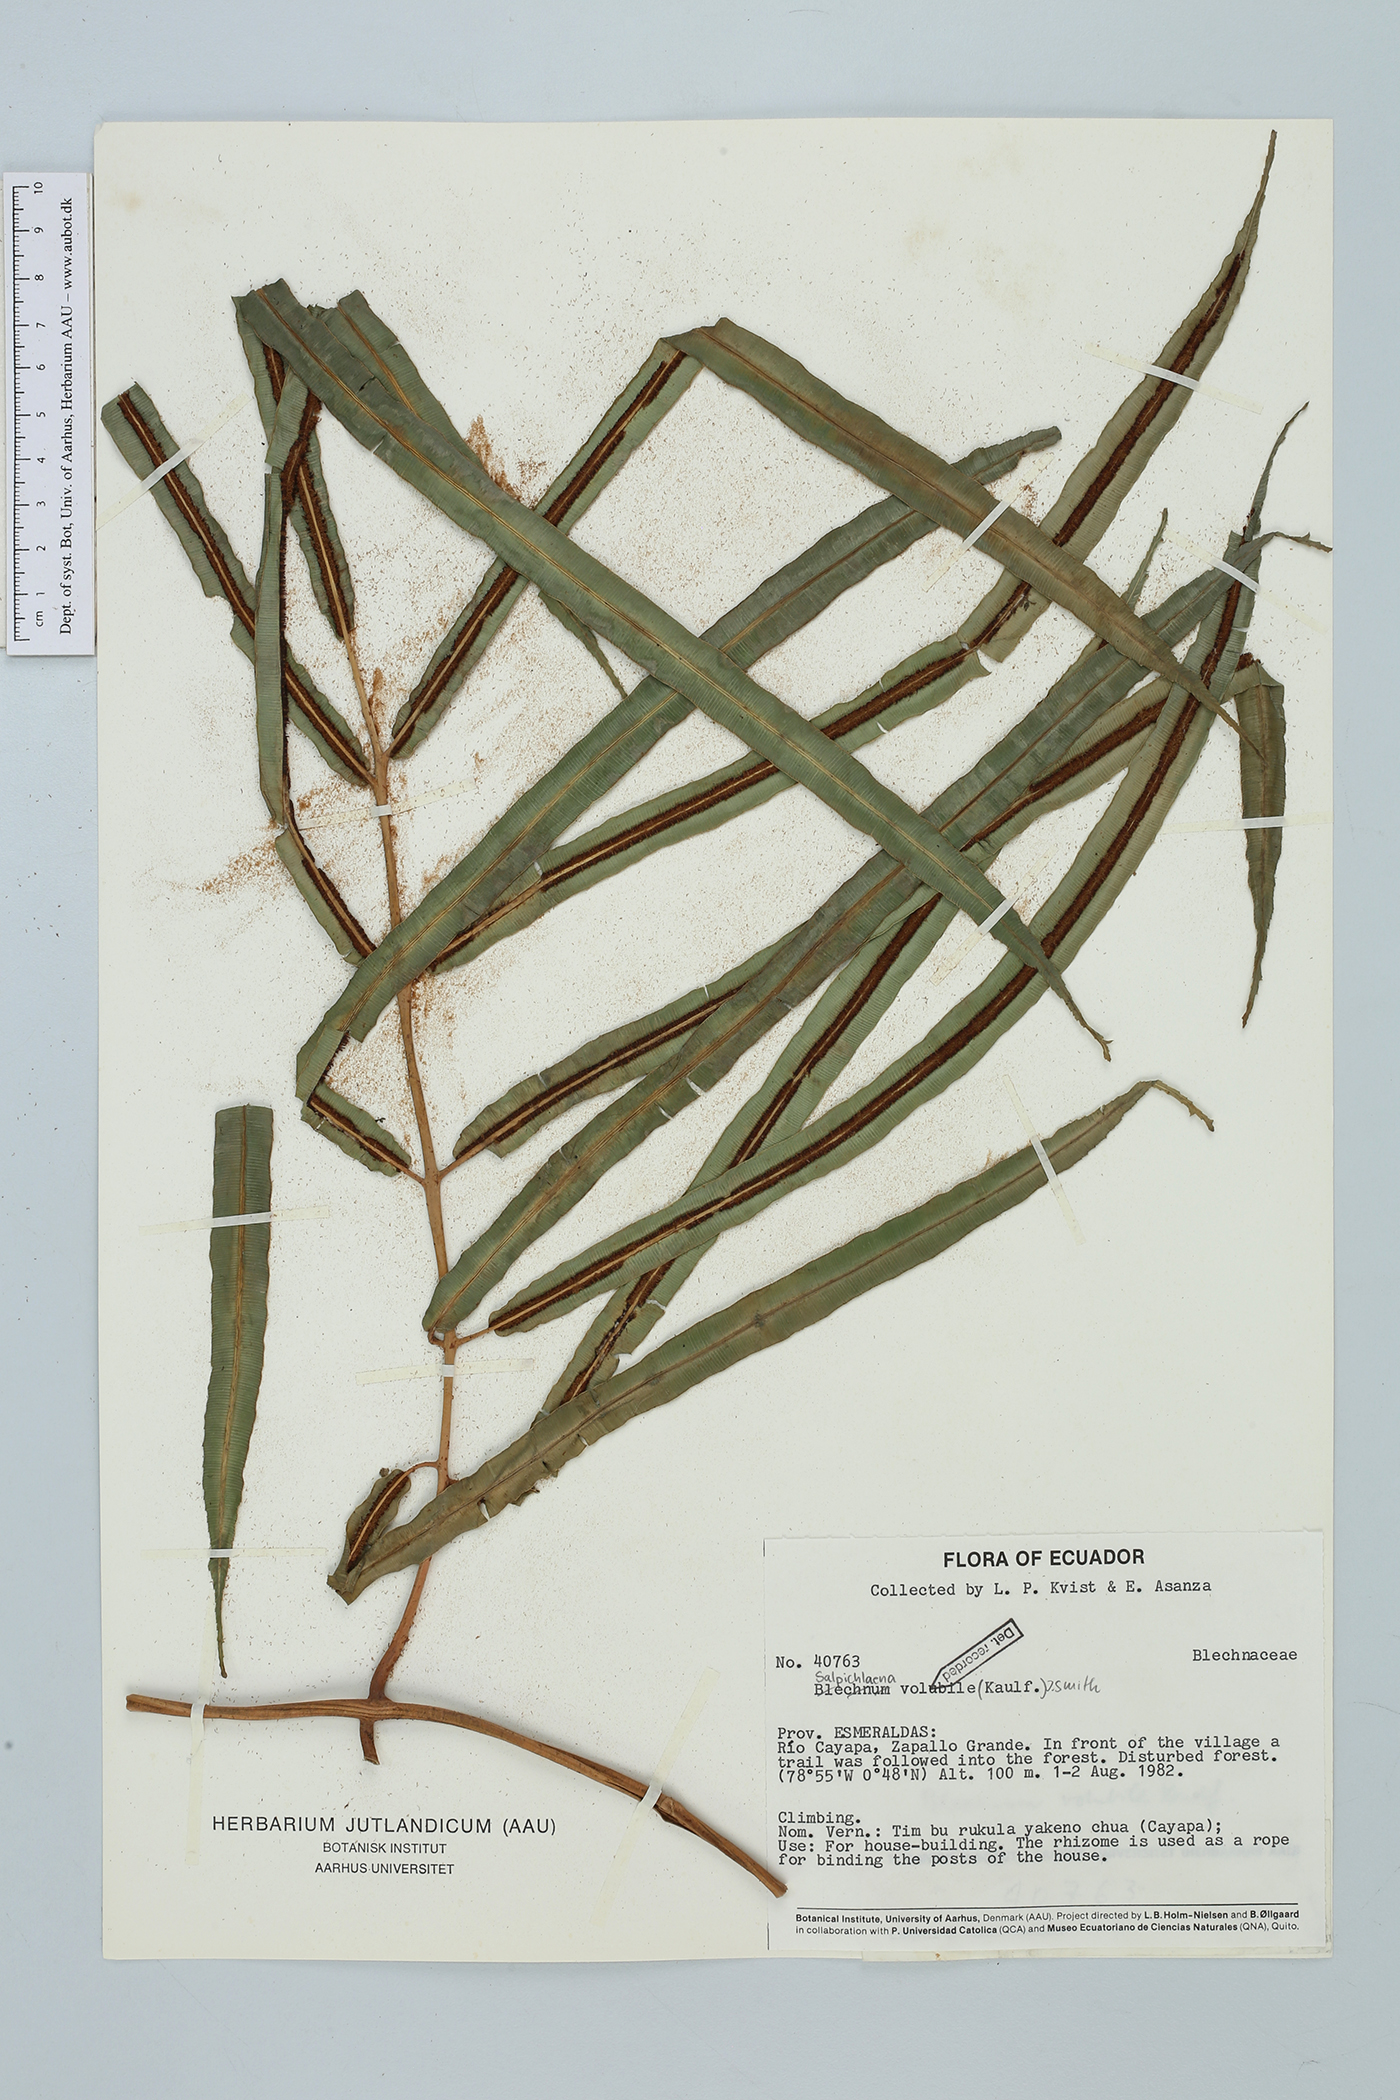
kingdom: Plantae
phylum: Tracheophyta
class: Polypodiopsida
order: Polypodiales
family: Blechnaceae
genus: Salpichlaena
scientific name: Salpichlaena volubilis
